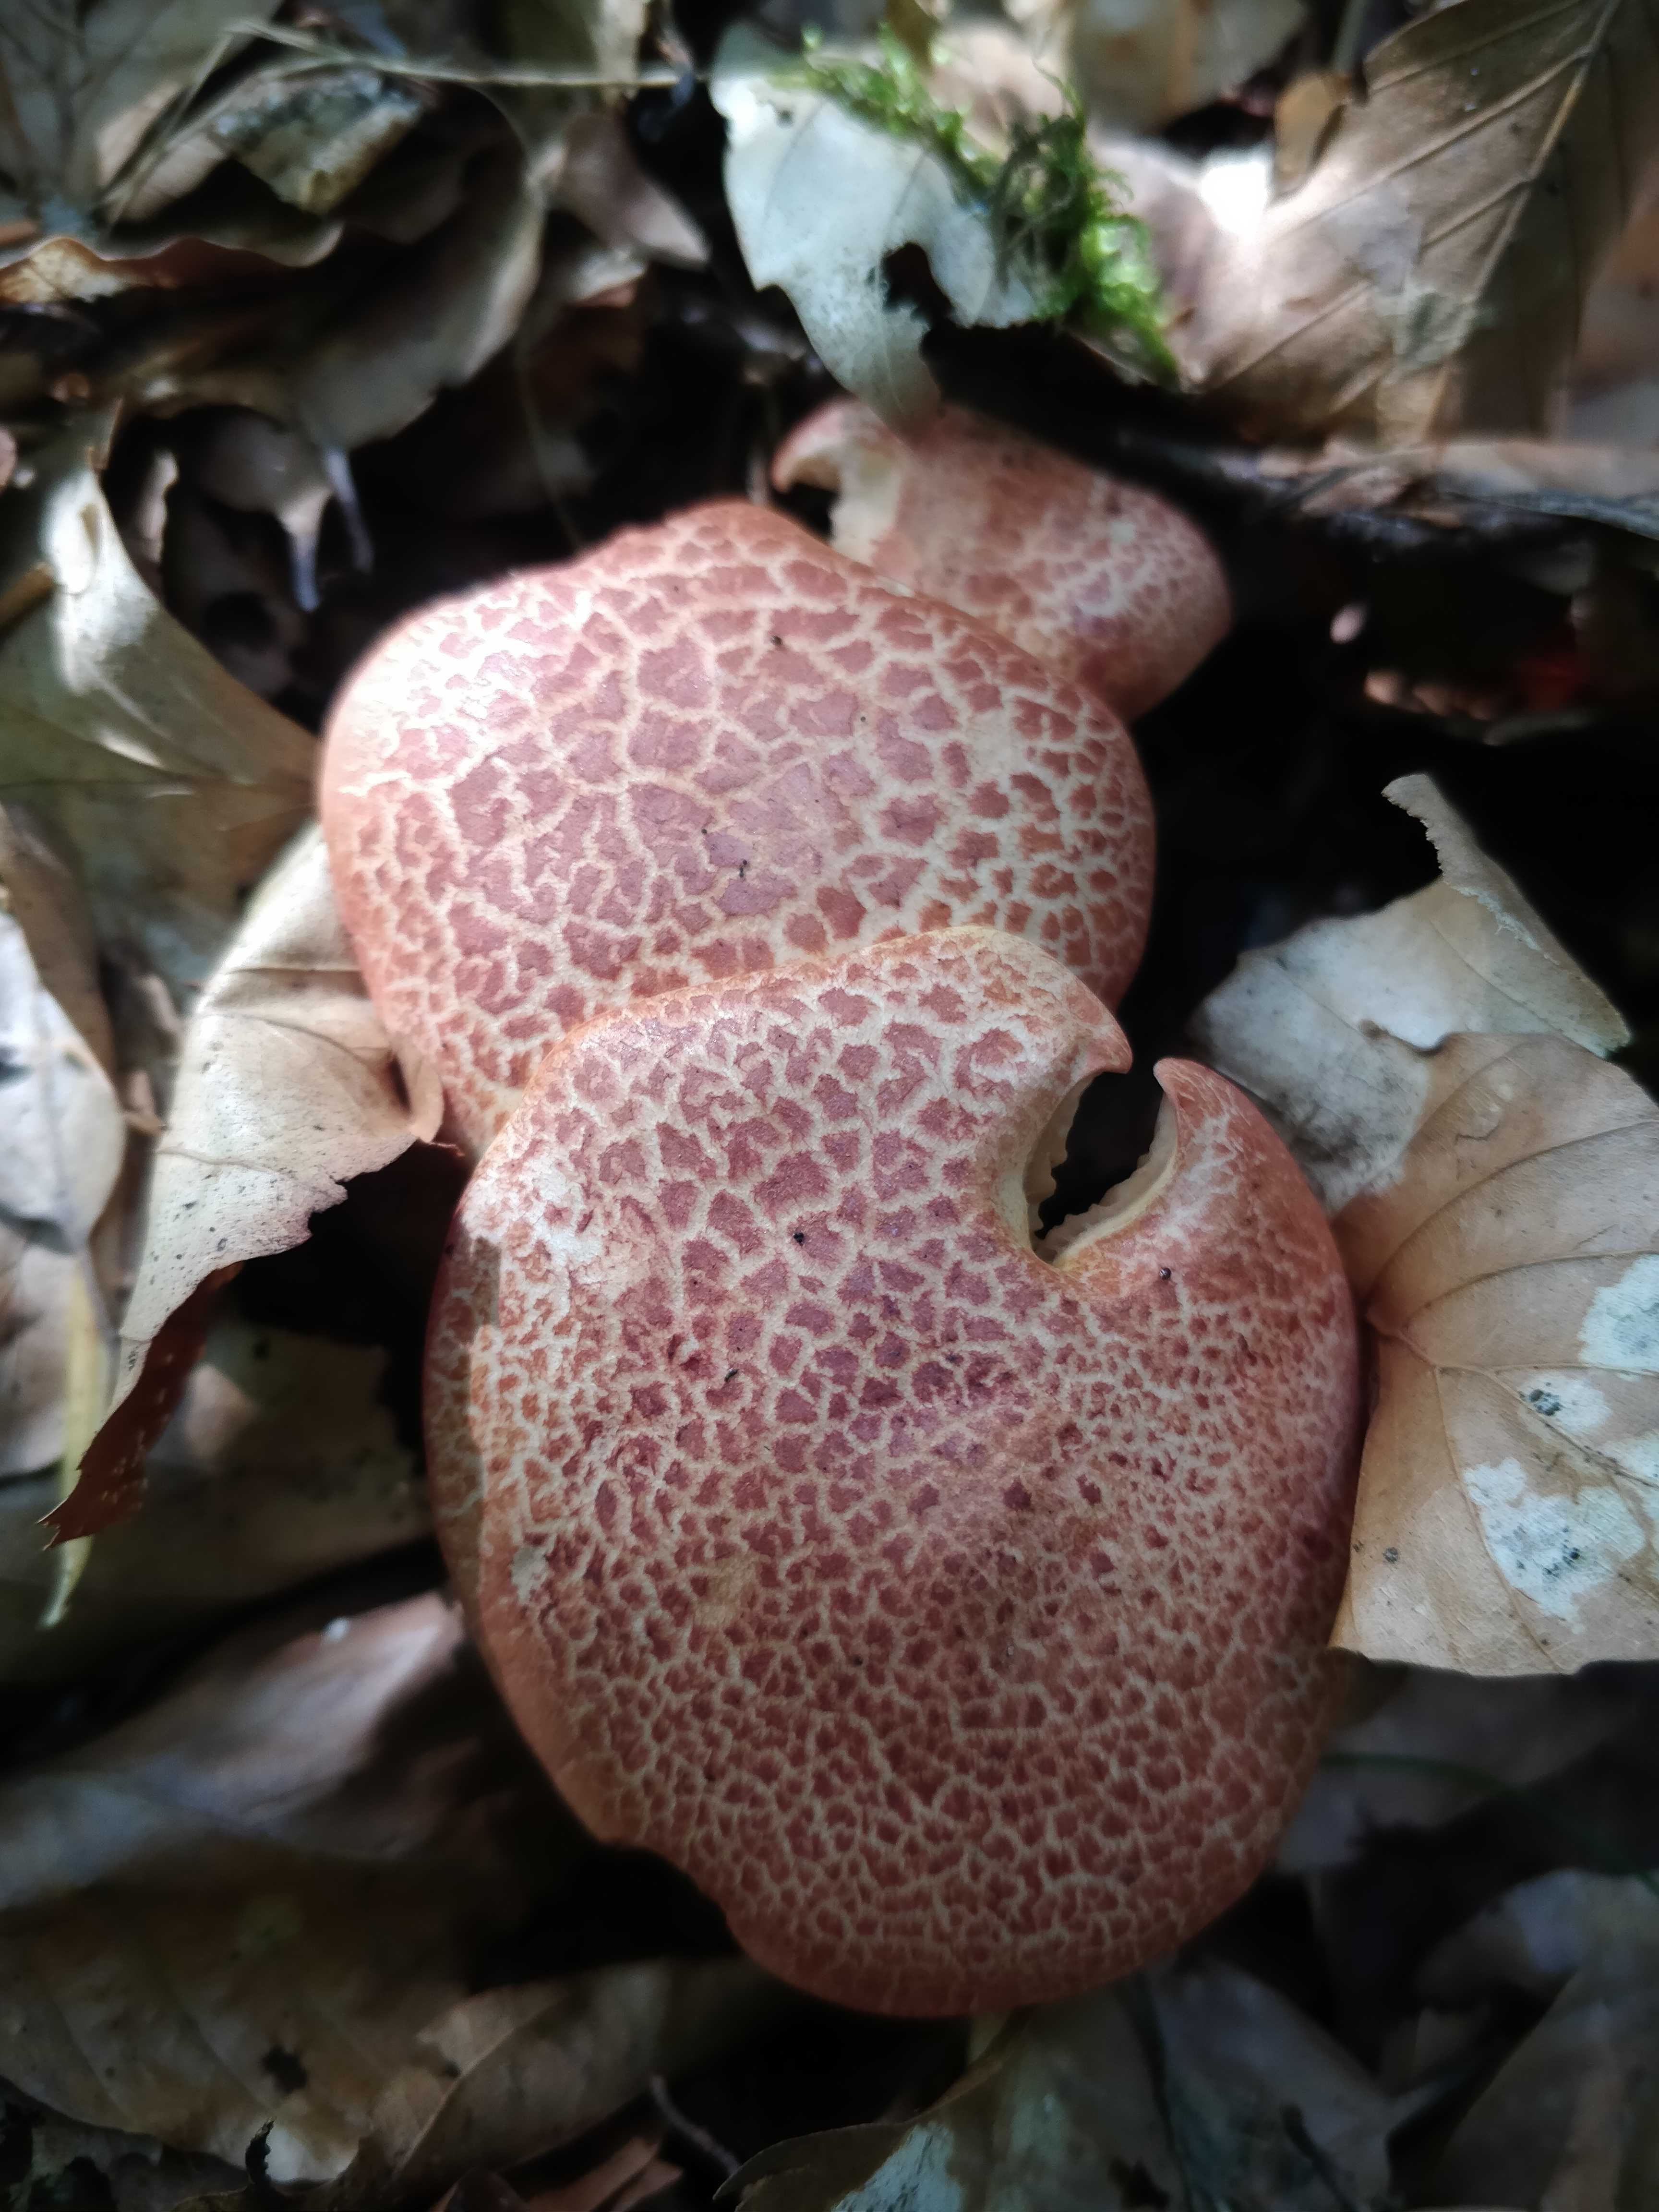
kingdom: Fungi
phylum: Basidiomycota
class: Agaricomycetes
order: Agaricales
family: Cortinariaceae
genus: Cortinarius
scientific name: Cortinarius bolaris
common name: cinnoberskællet slørhat
